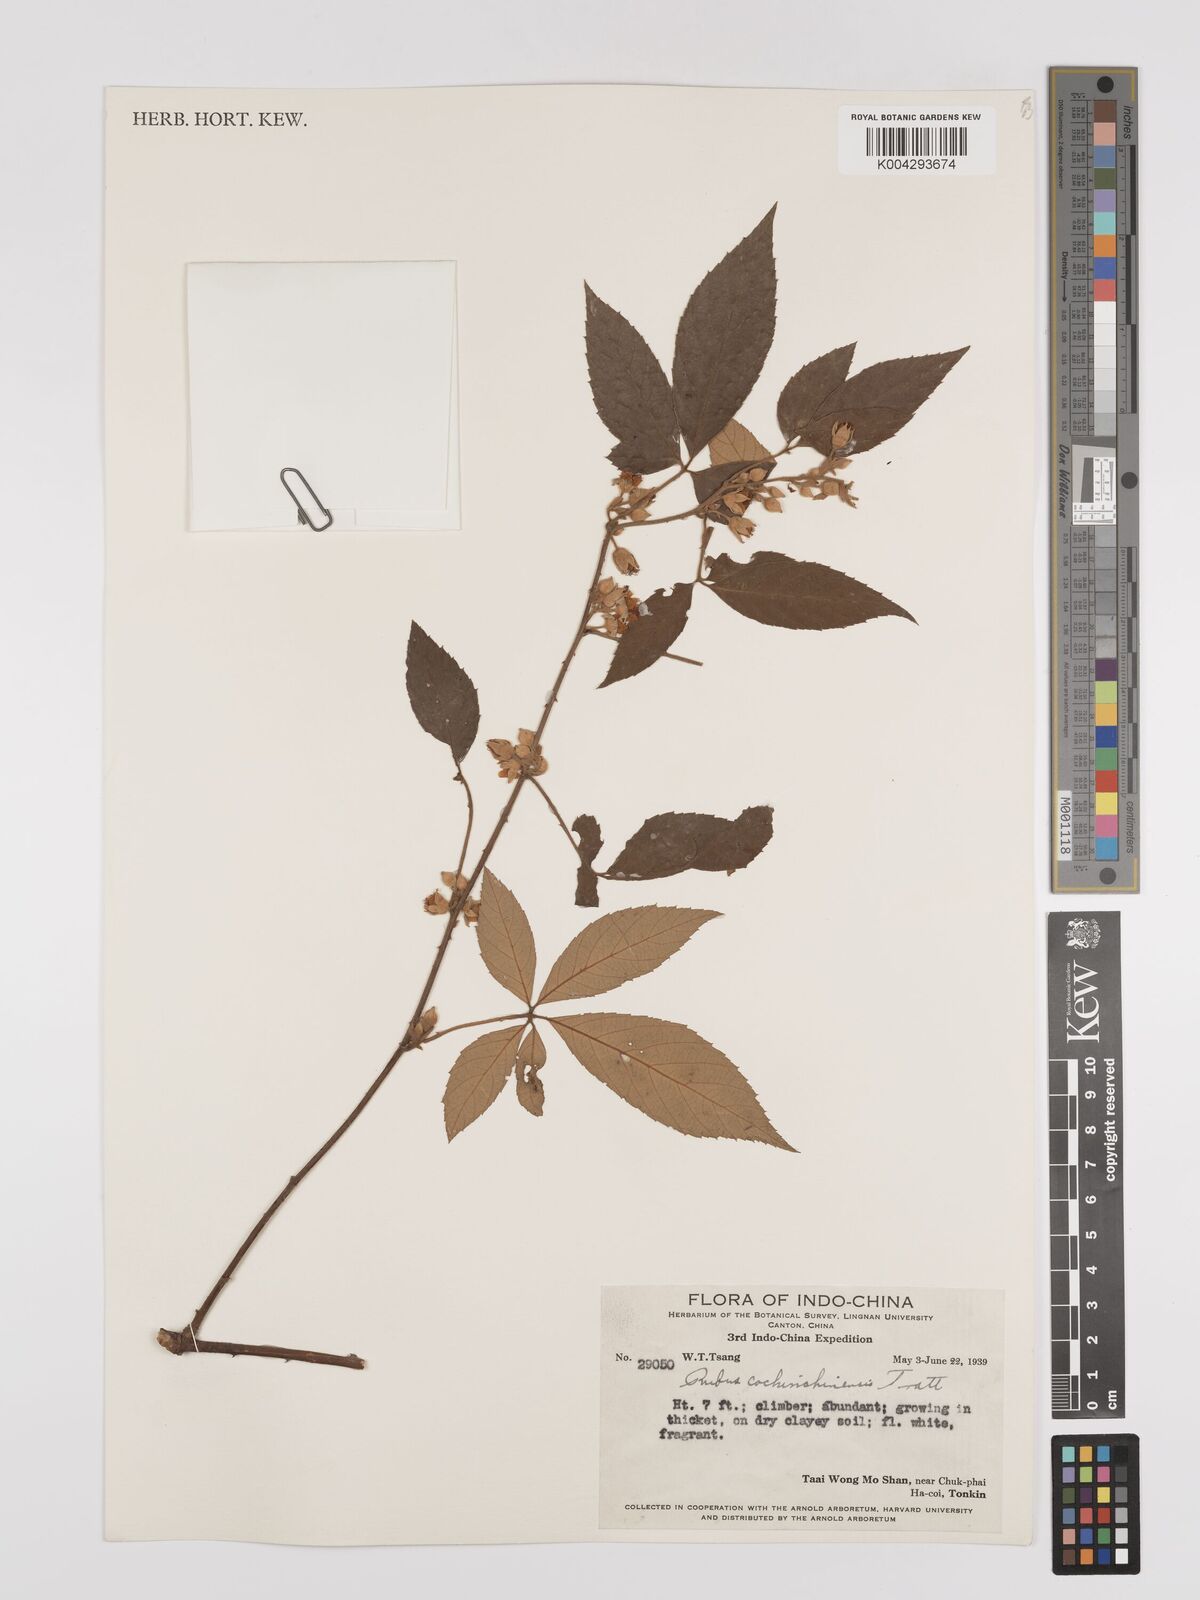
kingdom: Plantae
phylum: Tracheophyta
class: Magnoliopsida
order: Rosales
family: Rosaceae
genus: Rubus
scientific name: Rubus cochinchinensis
